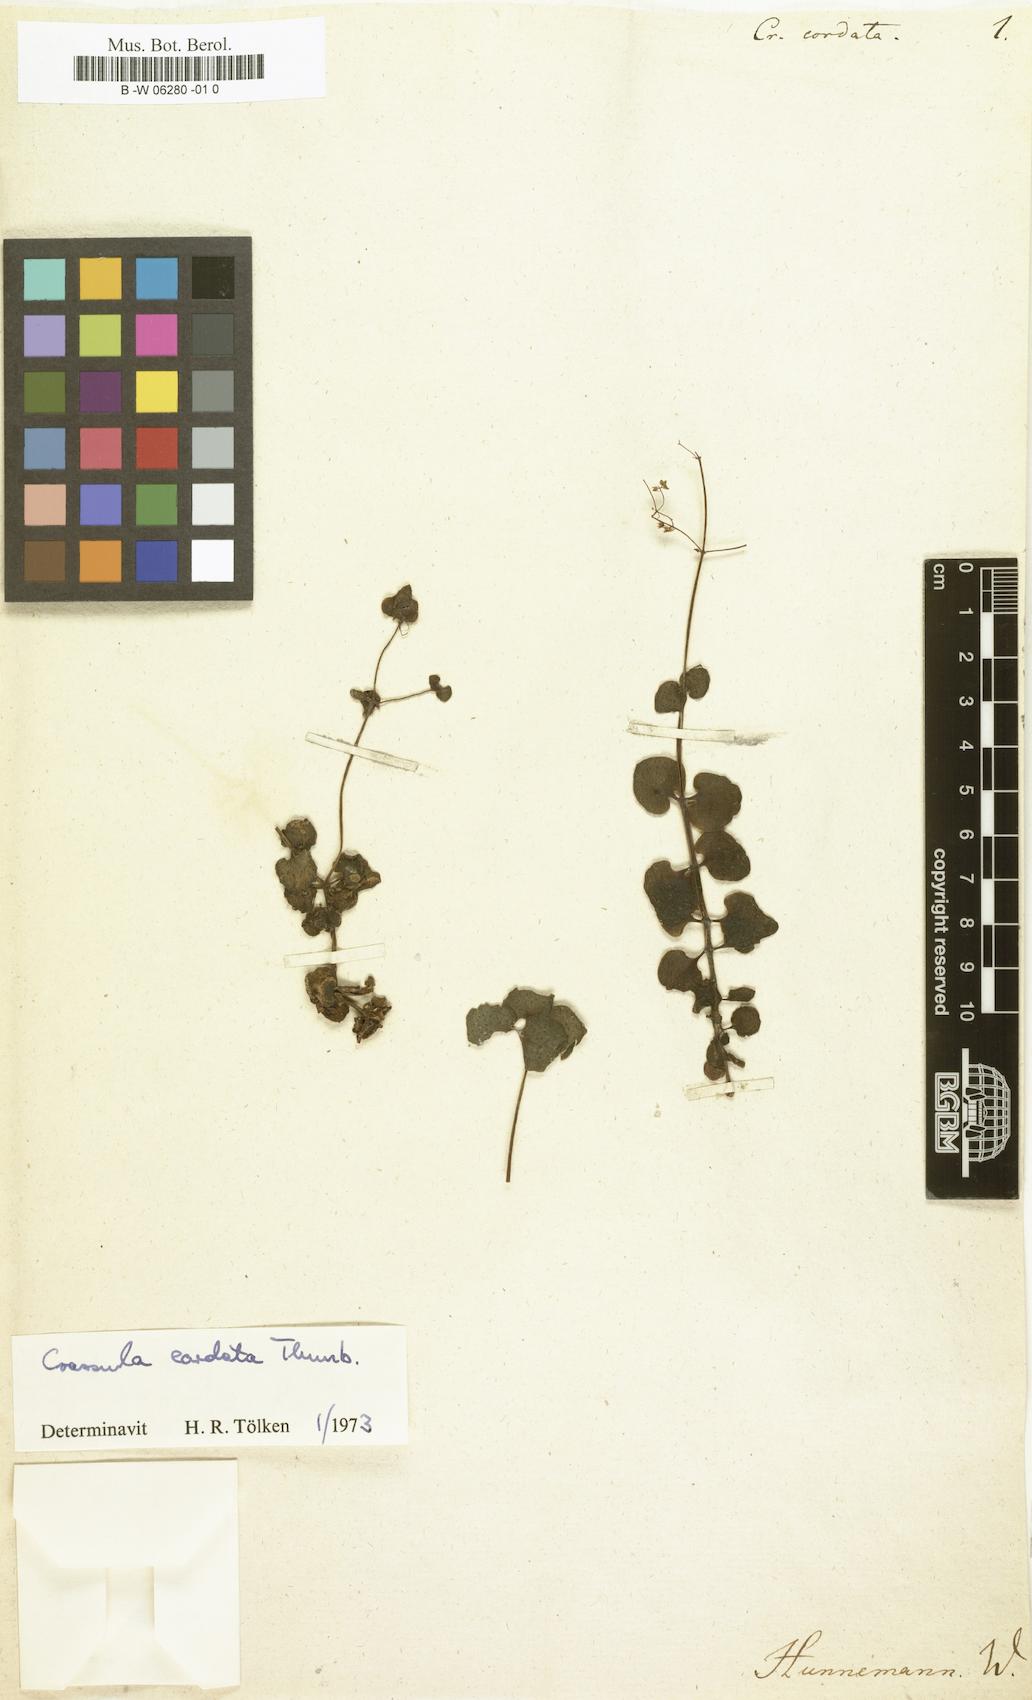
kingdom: Plantae
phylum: Tracheophyta
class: Magnoliopsida
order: Saxifragales
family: Crassulaceae
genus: Crassula
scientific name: Crassula cordata
